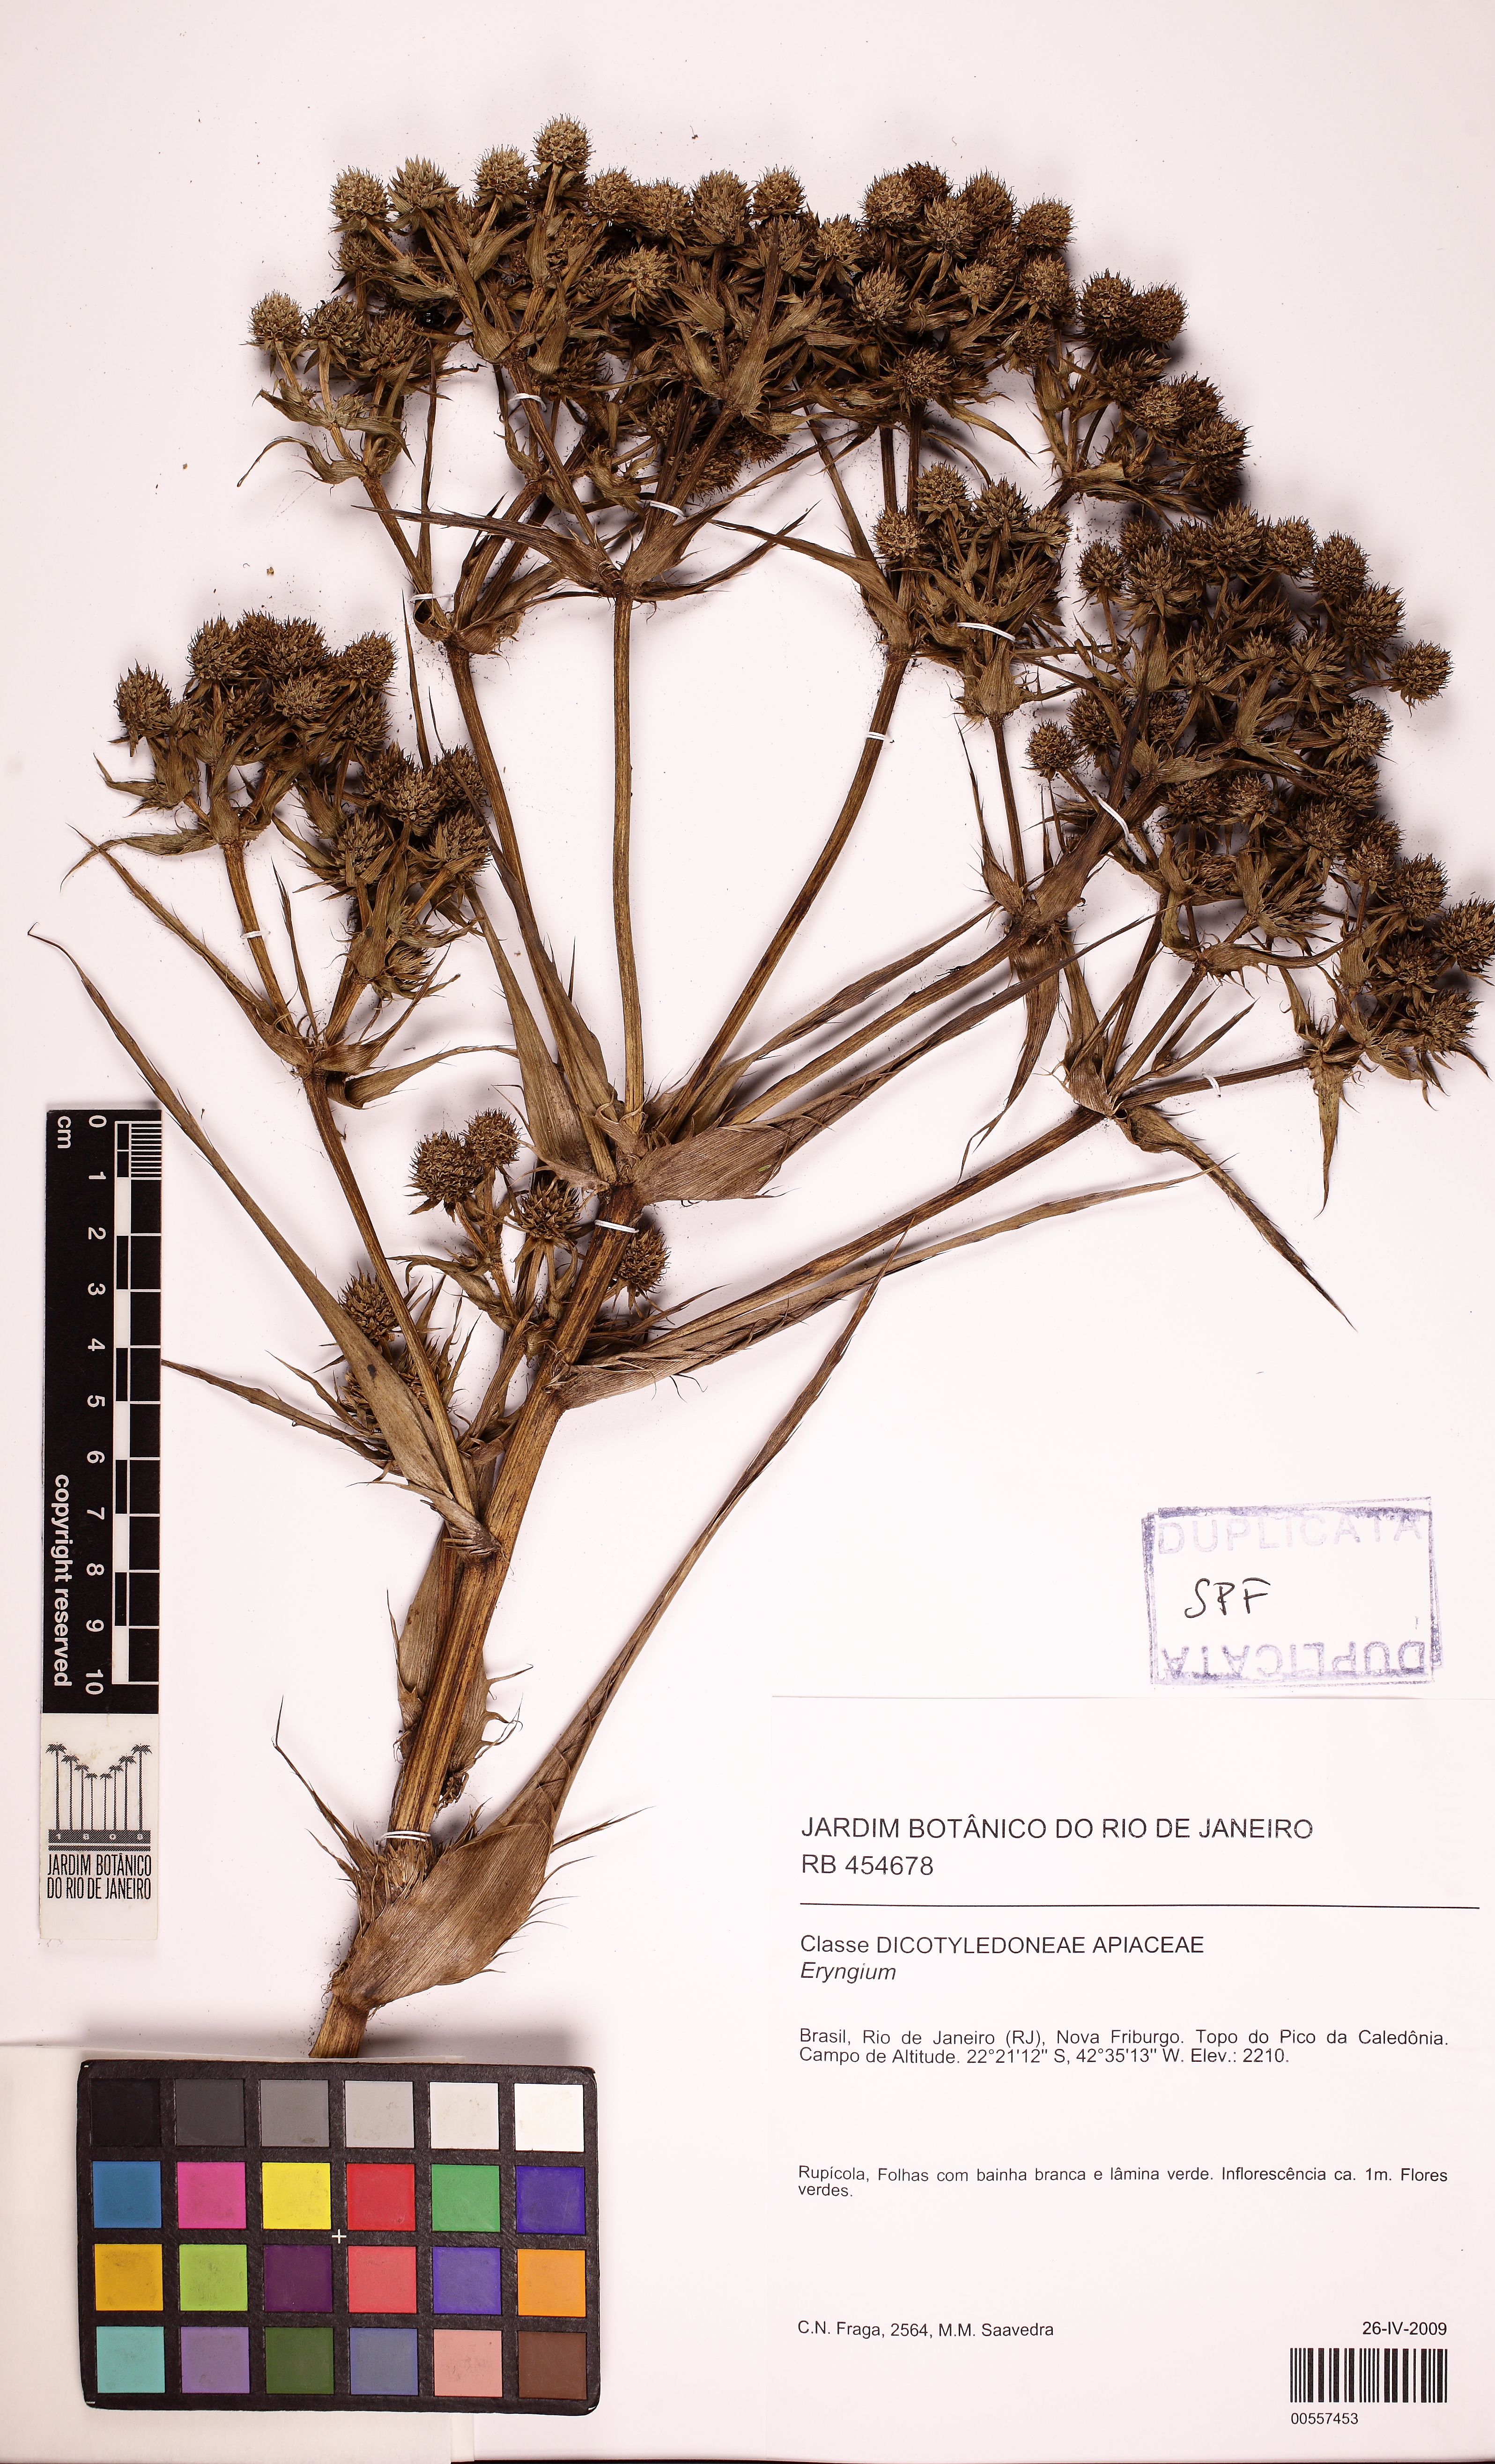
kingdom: Plantae
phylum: Tracheophyta
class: Magnoliopsida
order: Apiales
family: Apiaceae
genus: Eryngium
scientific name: Eryngium fluminense
